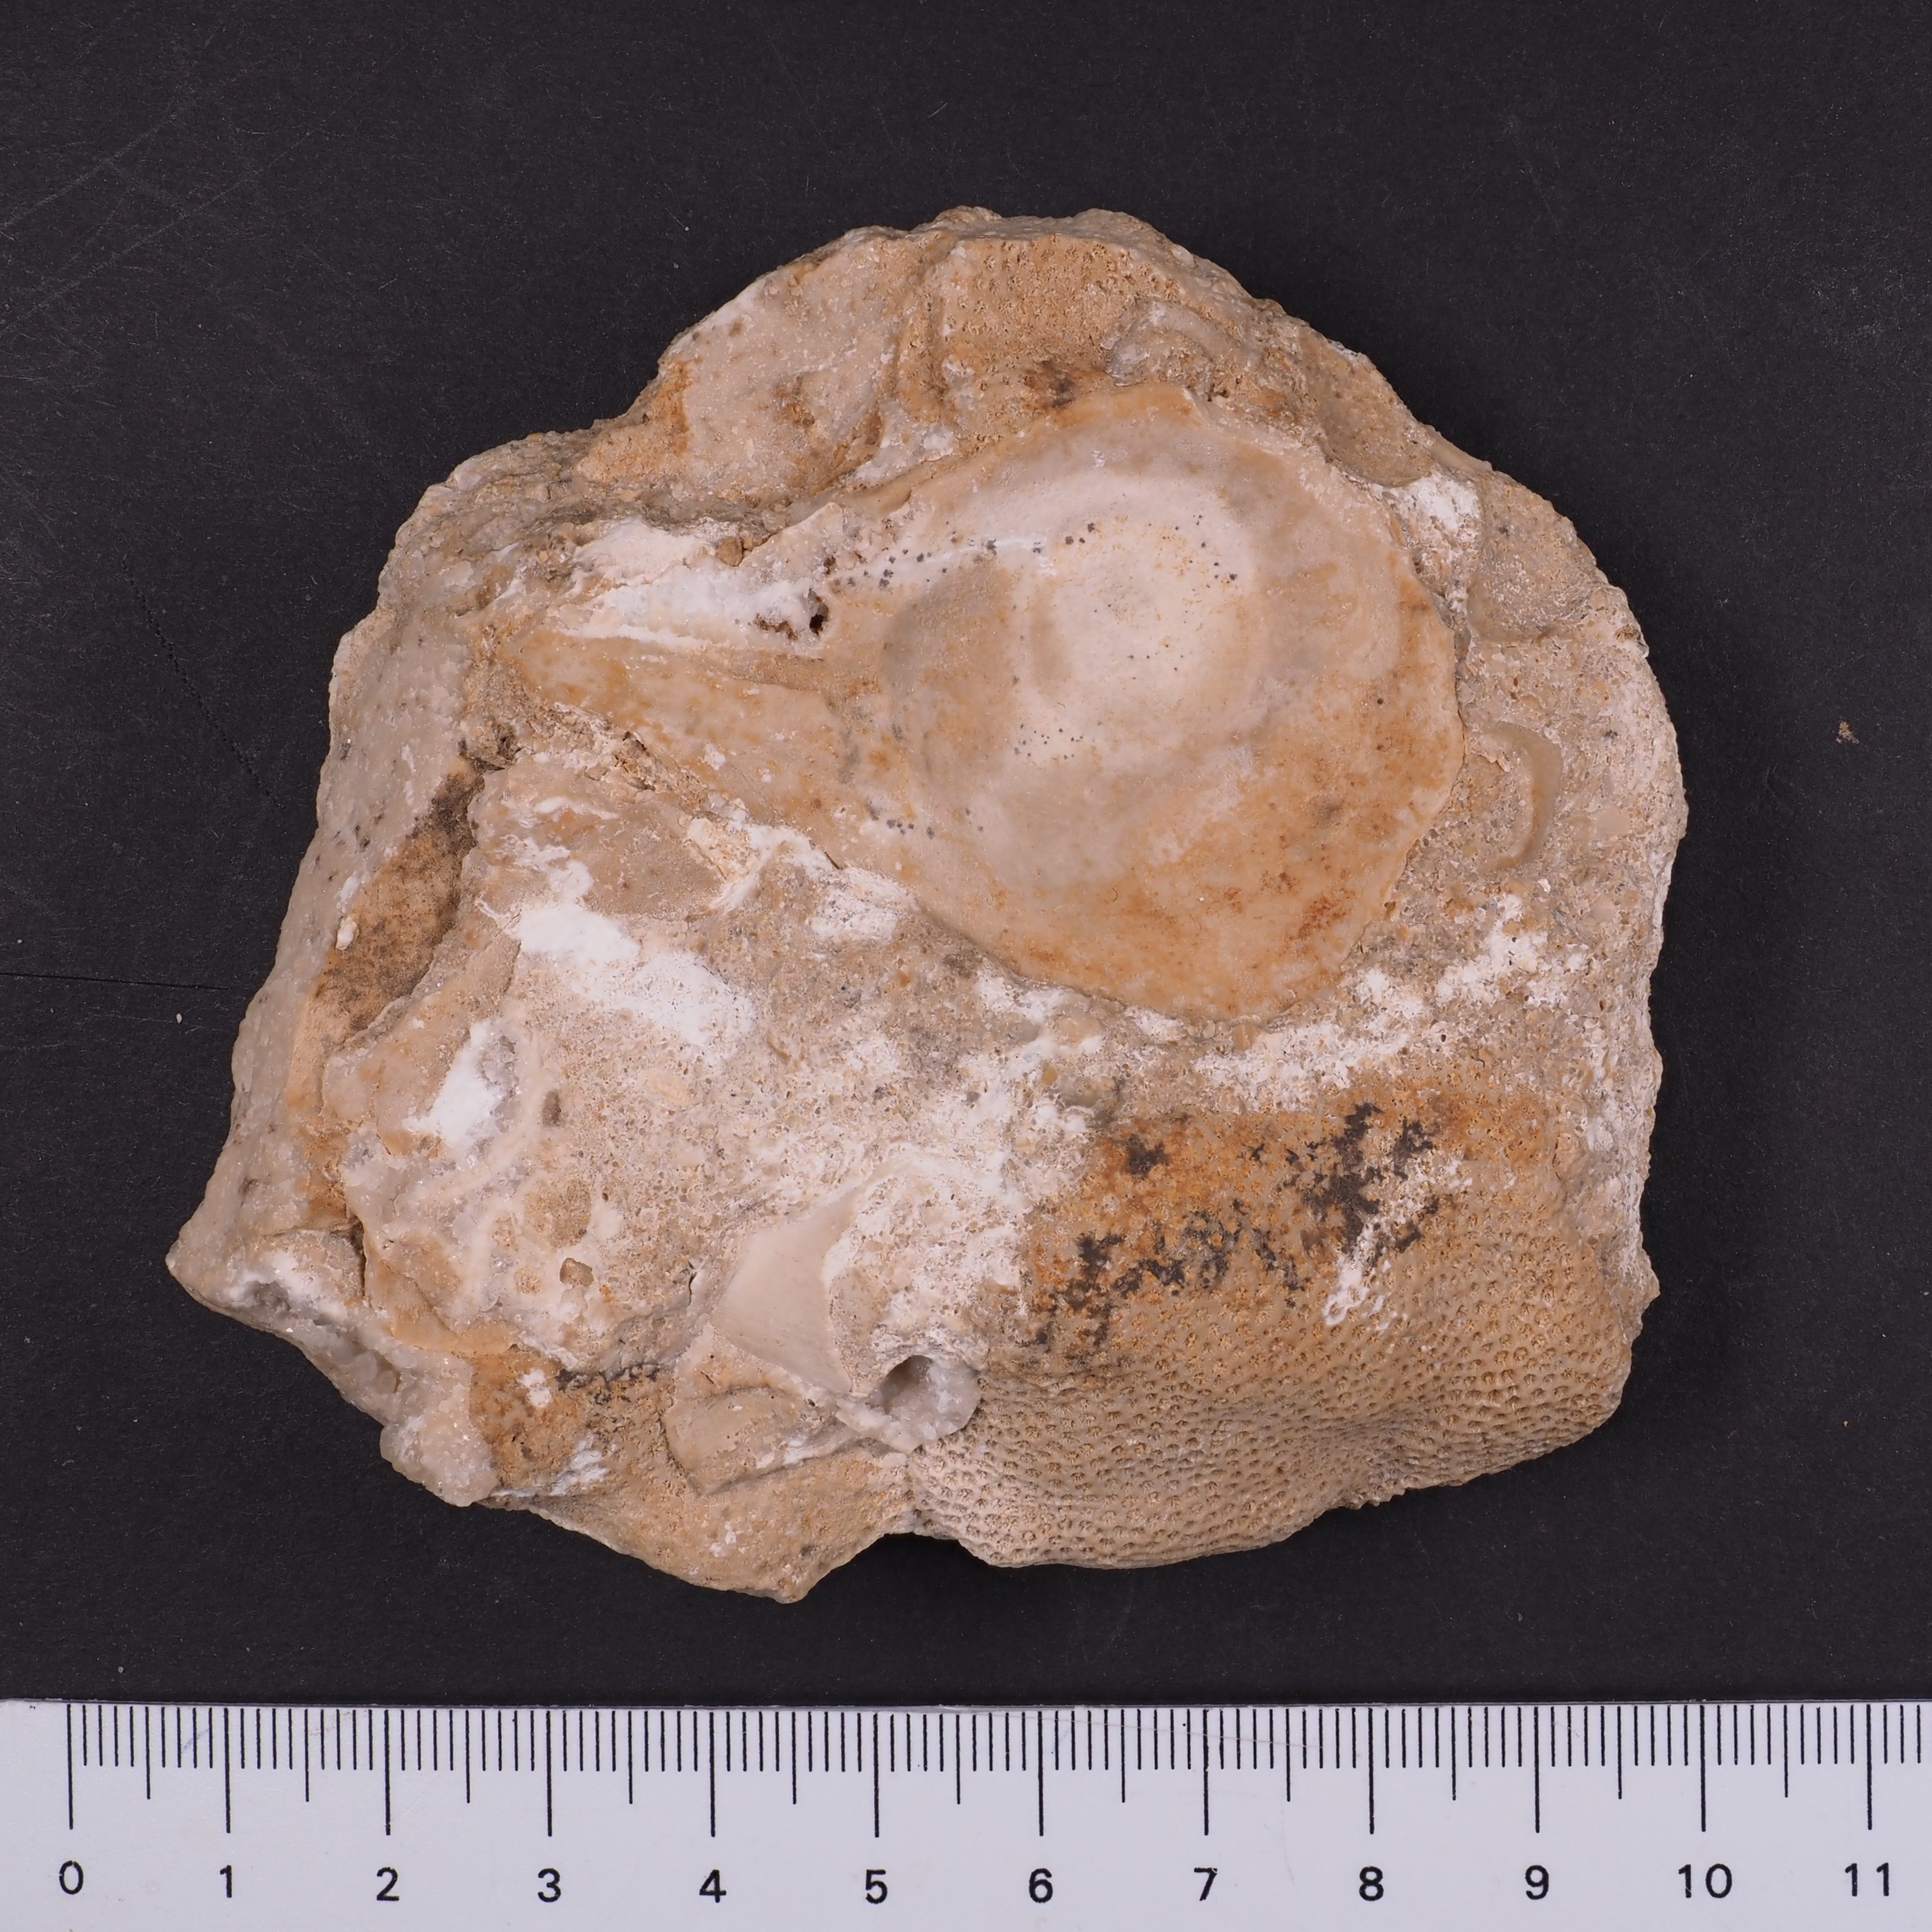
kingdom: Animalia
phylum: Mollusca
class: Bivalvia
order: Ostreida
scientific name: Ostreida
